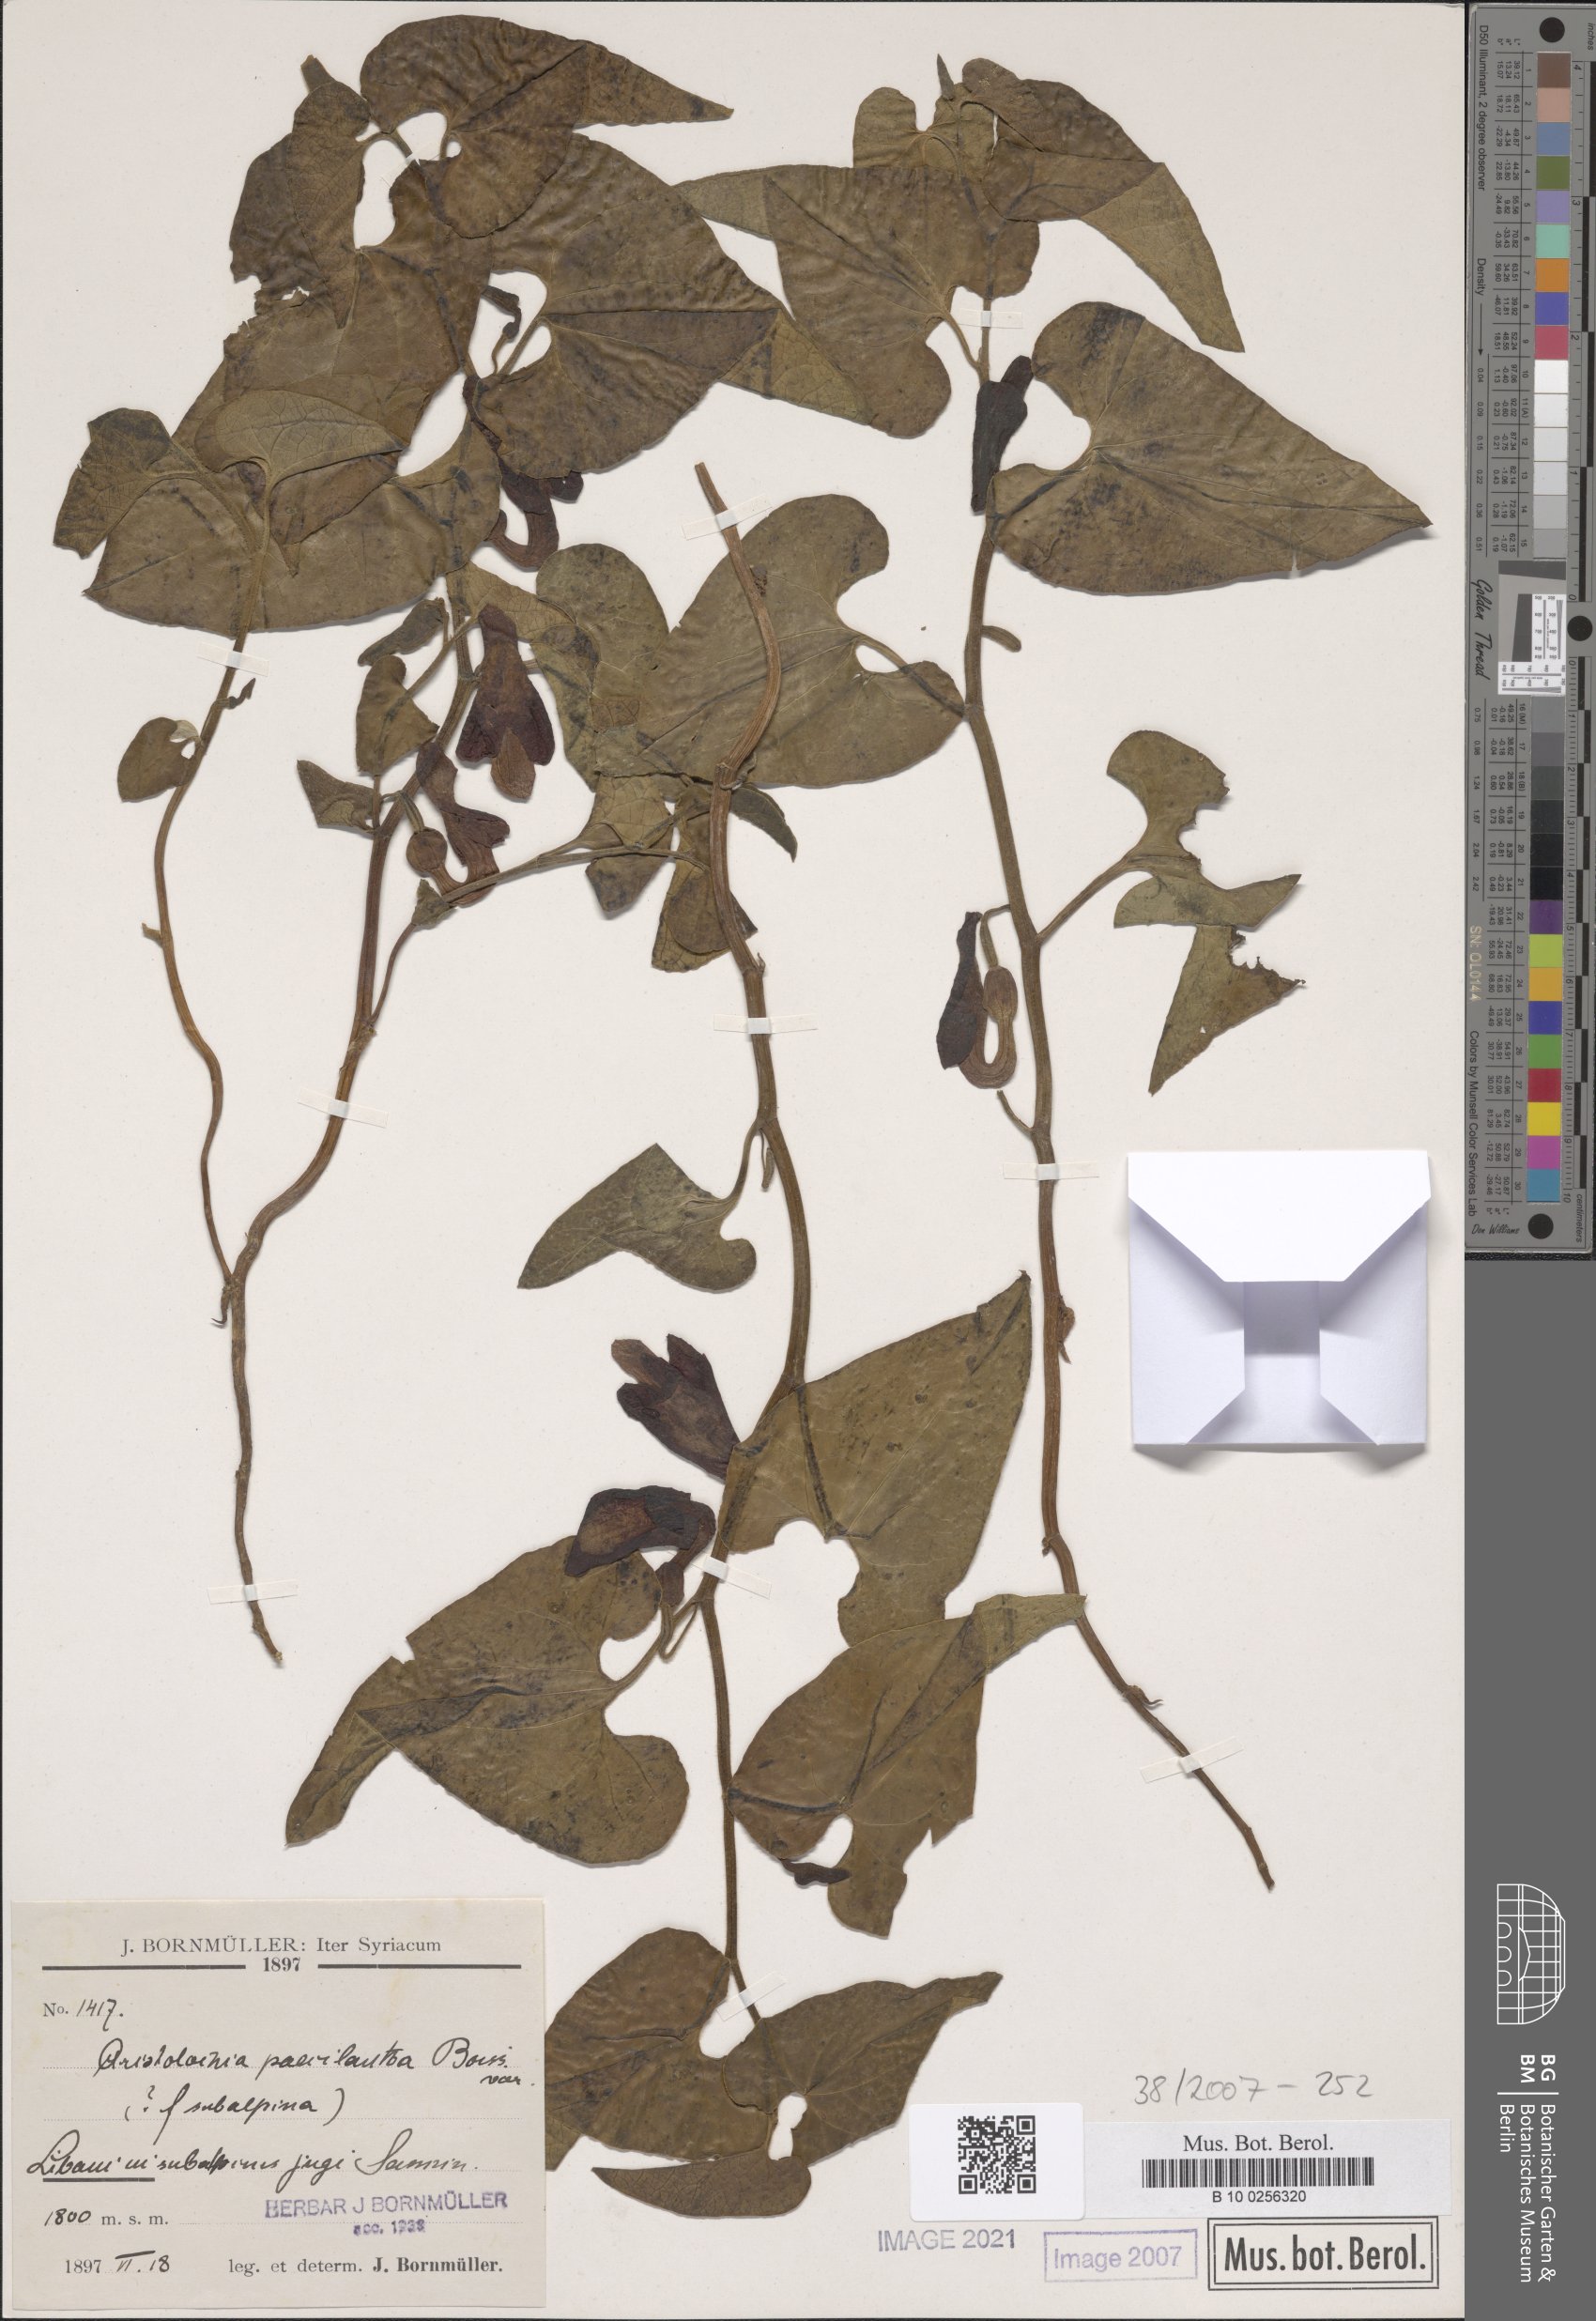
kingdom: Plantae
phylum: Tracheophyta
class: Magnoliopsida
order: Piperales
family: Aristolochiaceae
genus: Aristolochia
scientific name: Aristolochia paecilantha
